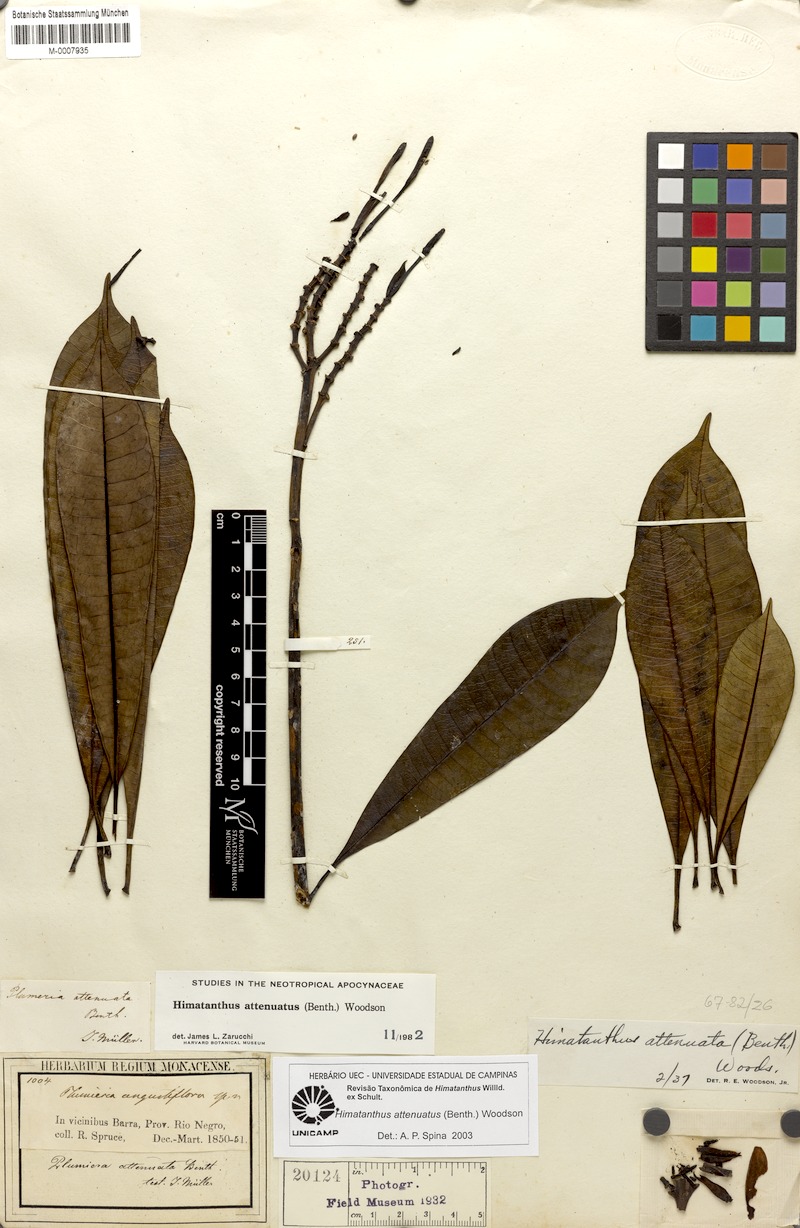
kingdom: Plantae
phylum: Tracheophyta
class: Magnoliopsida
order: Gentianales
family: Apocynaceae
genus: Himatanthus
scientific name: Himatanthus attenuatus
